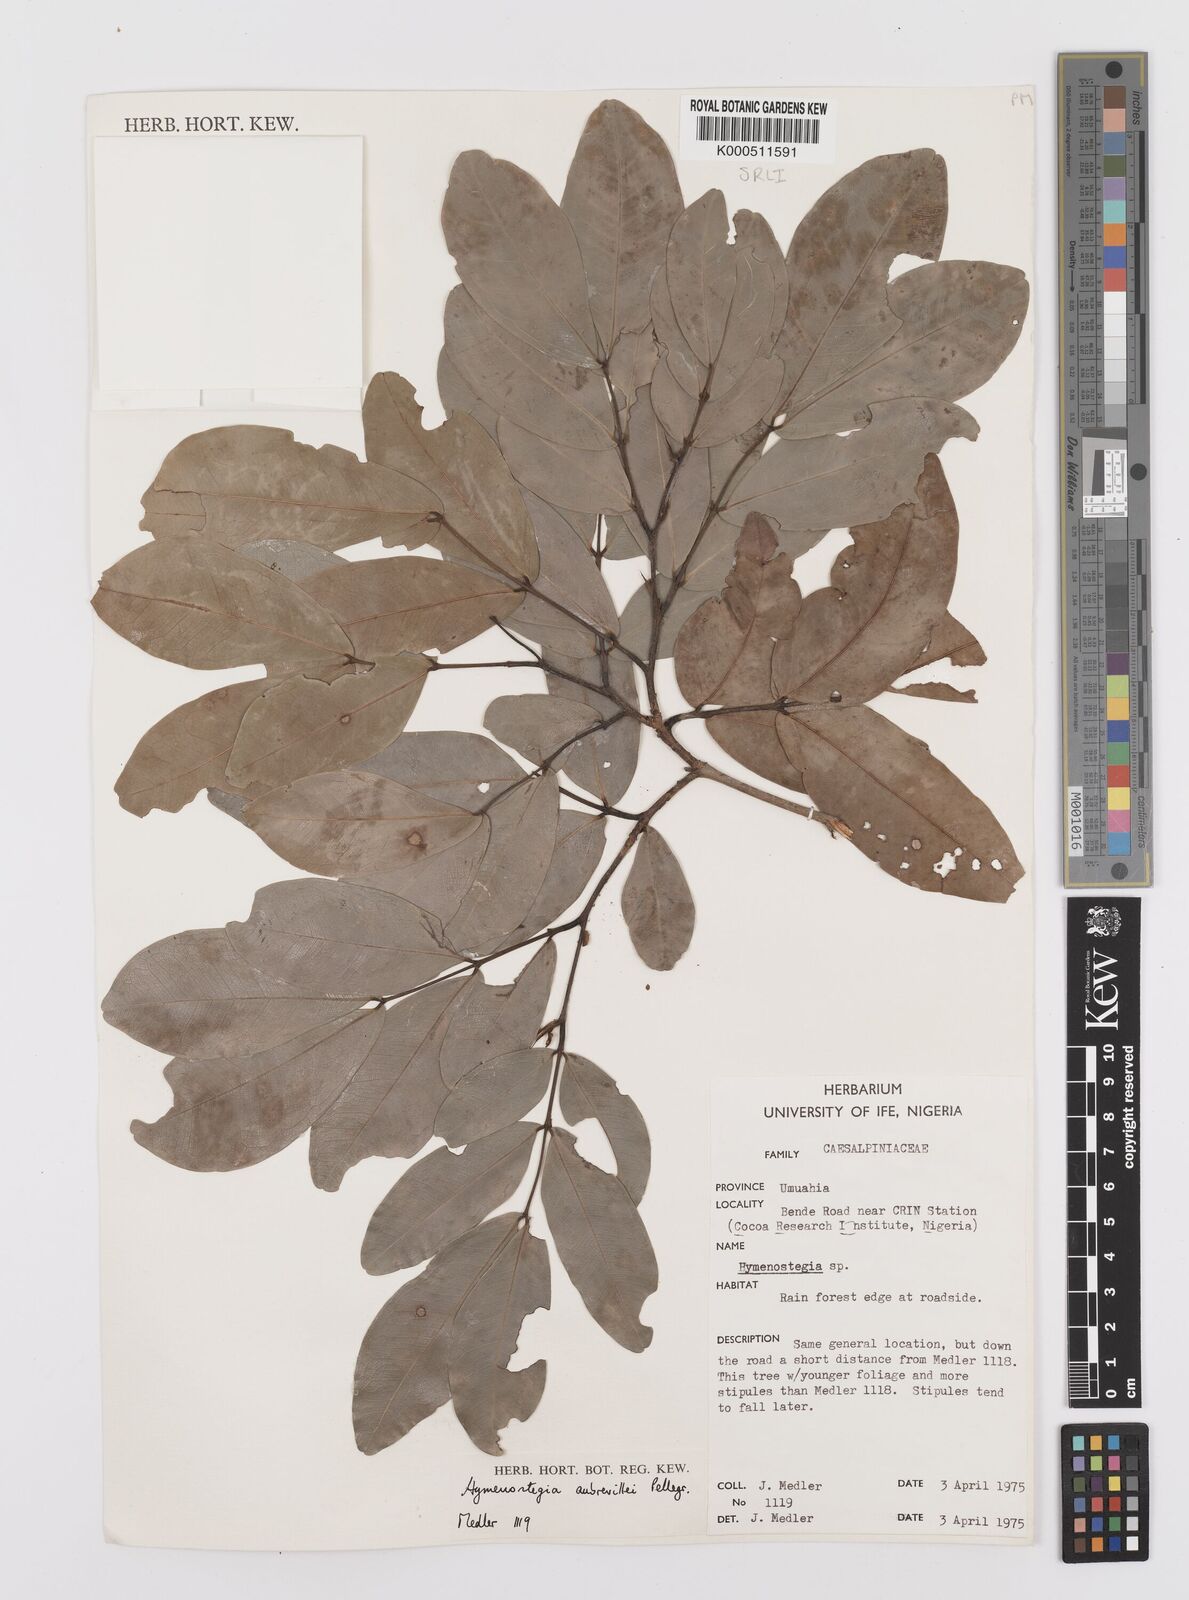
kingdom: Plantae
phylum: Tracheophyta
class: Magnoliopsida
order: Fabales
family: Fabaceae
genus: Hymenostegia
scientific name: Hymenostegia aubrevillei
